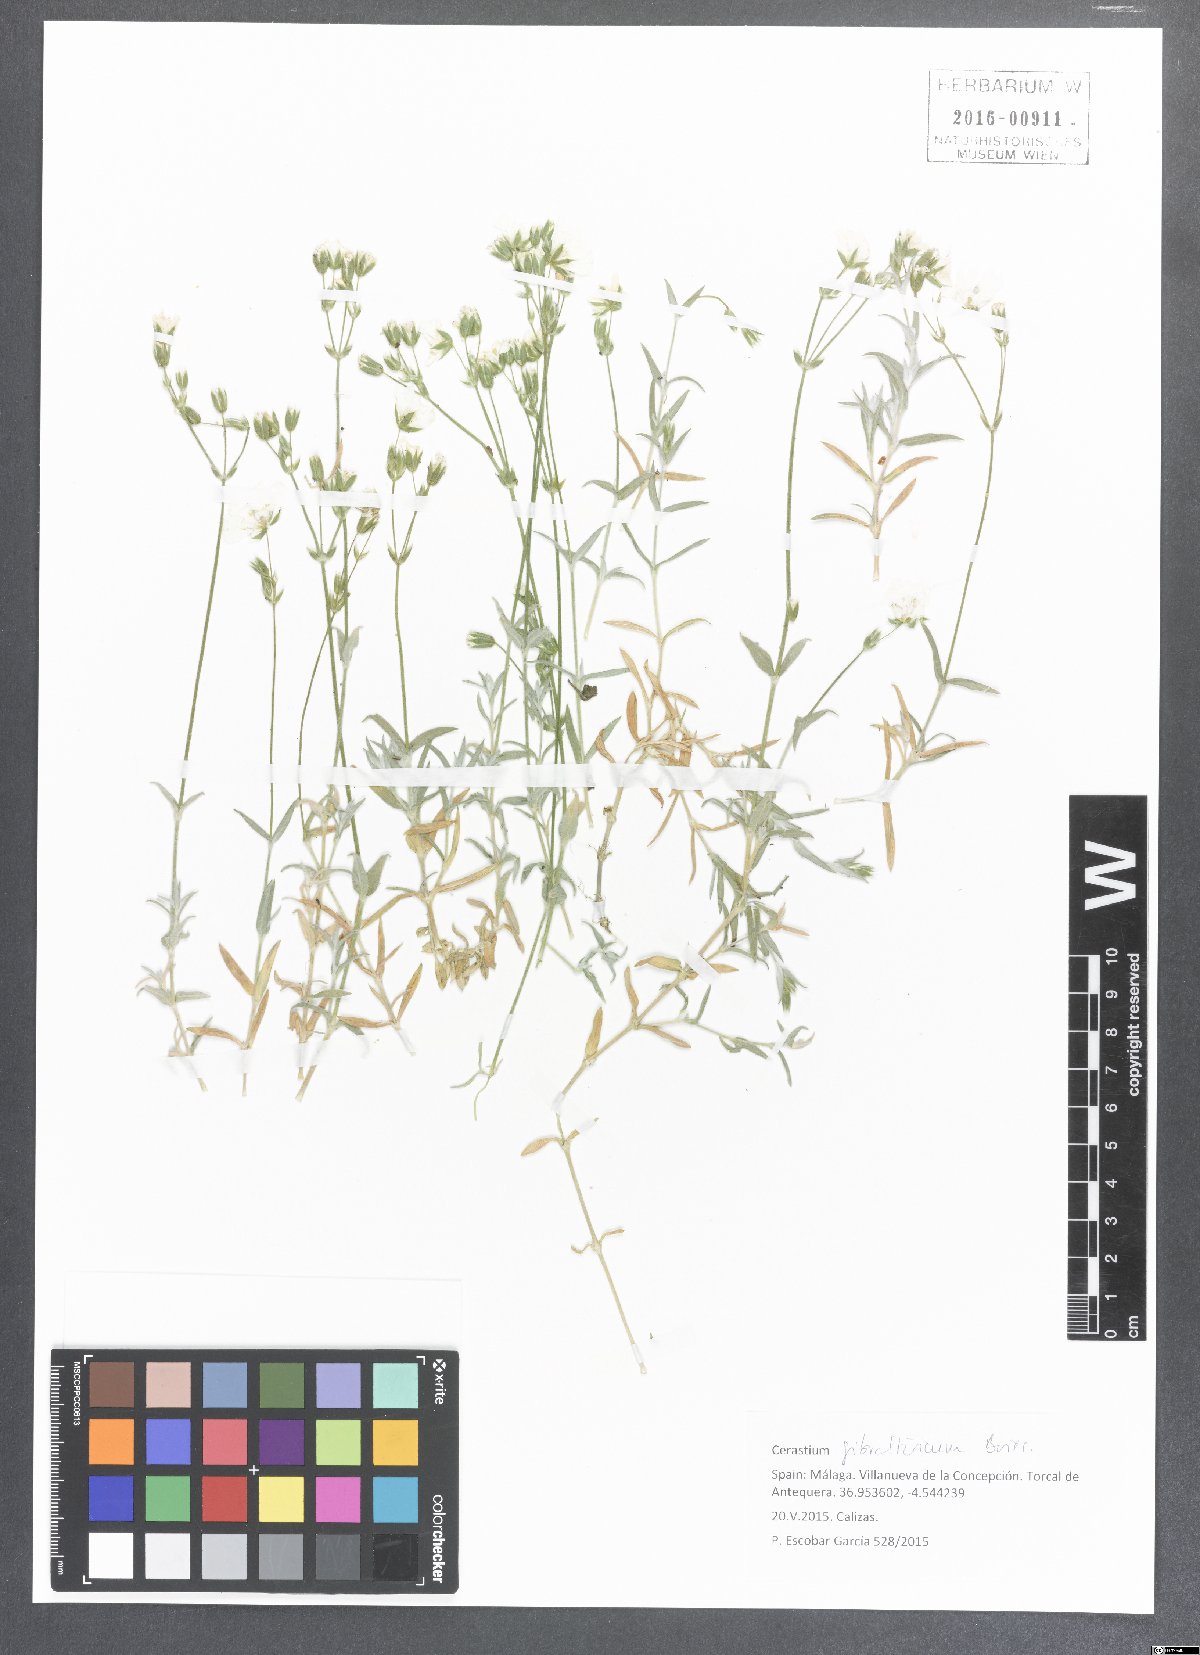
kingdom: Plantae
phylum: Tracheophyta
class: Magnoliopsida
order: Caryophyllales
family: Caryophyllaceae
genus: Cerastium
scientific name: Cerastium gibraltaricum
